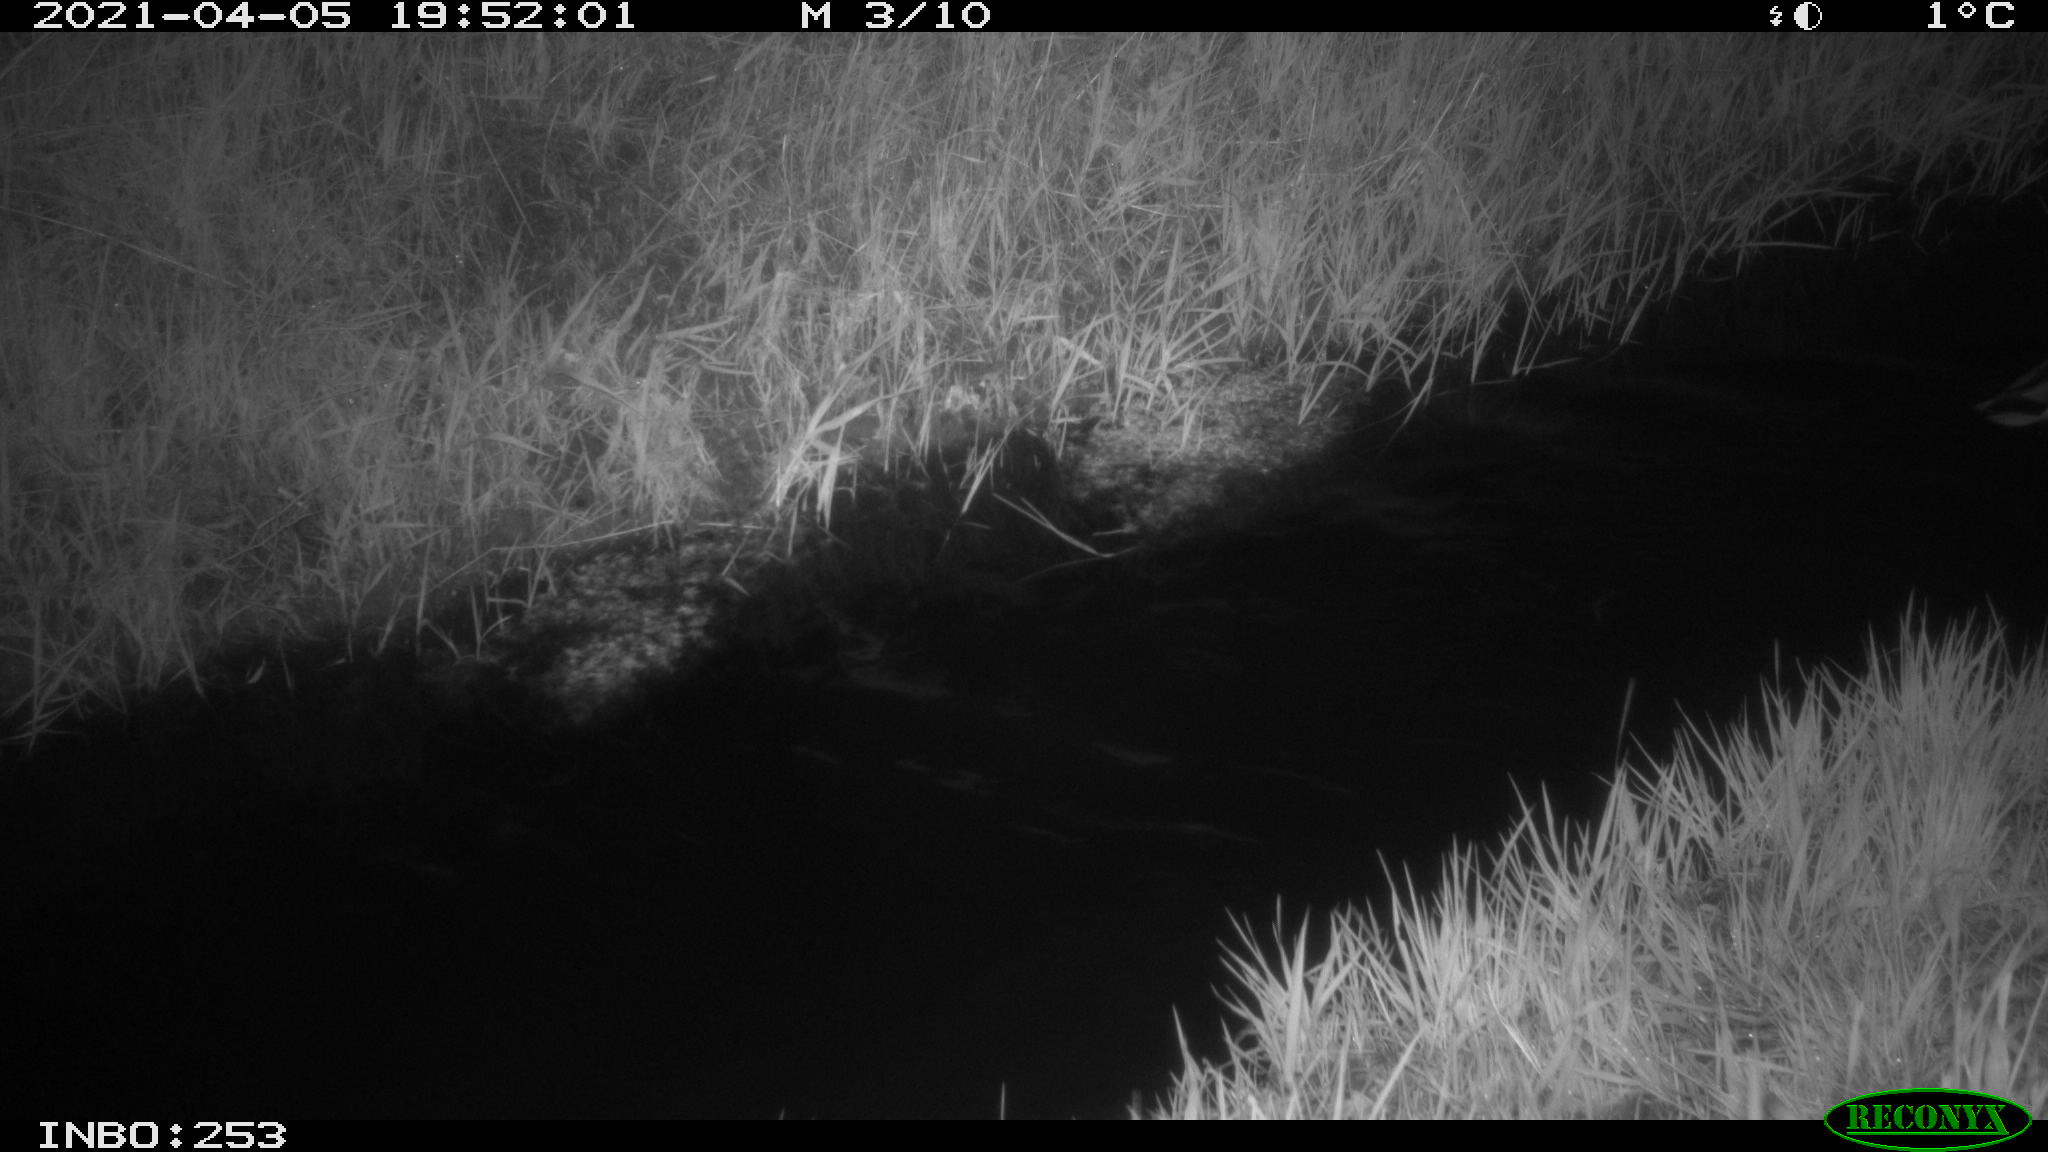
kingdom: Animalia
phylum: Chordata
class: Aves
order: Anseriformes
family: Anatidae
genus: Anas
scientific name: Anas platyrhynchos
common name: Mallard
